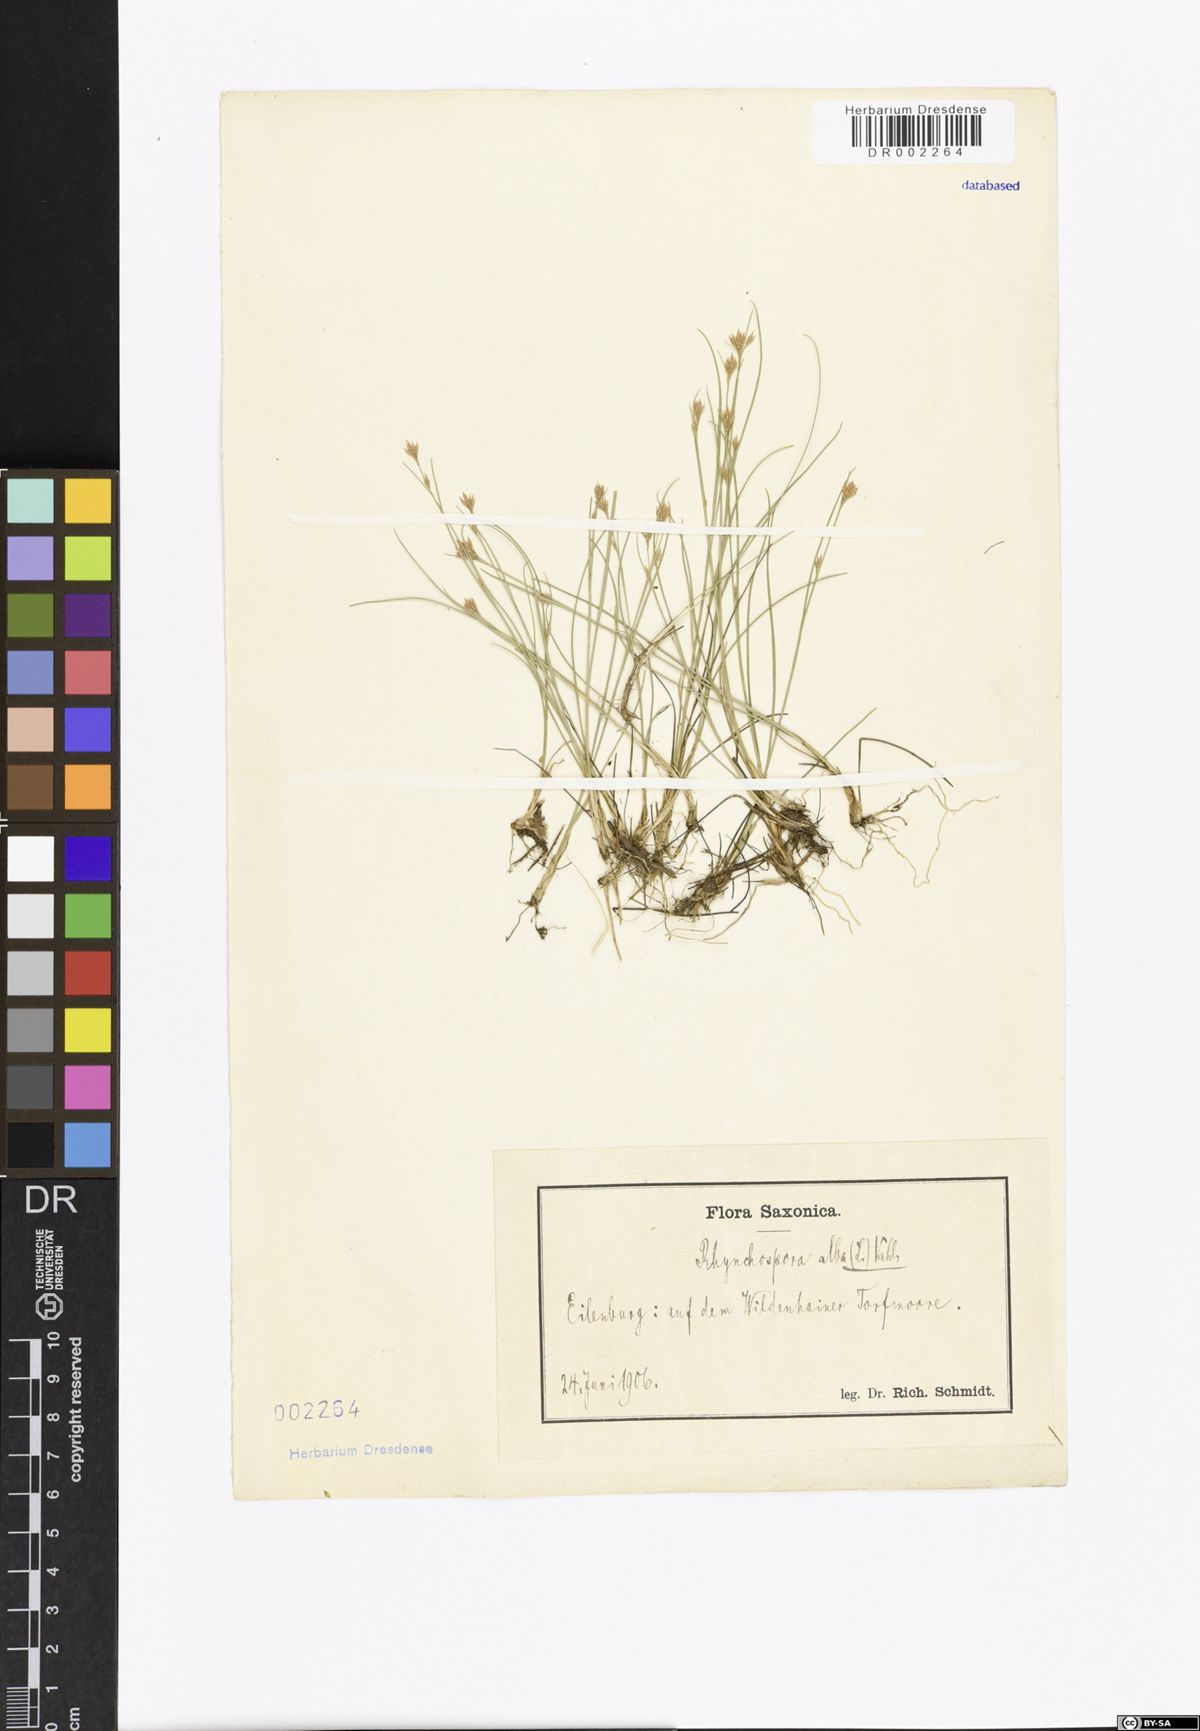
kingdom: Plantae
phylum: Tracheophyta
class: Liliopsida
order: Poales
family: Cyperaceae
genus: Rhynchospora
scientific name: Rhynchospora alba
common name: White beak-sedge
